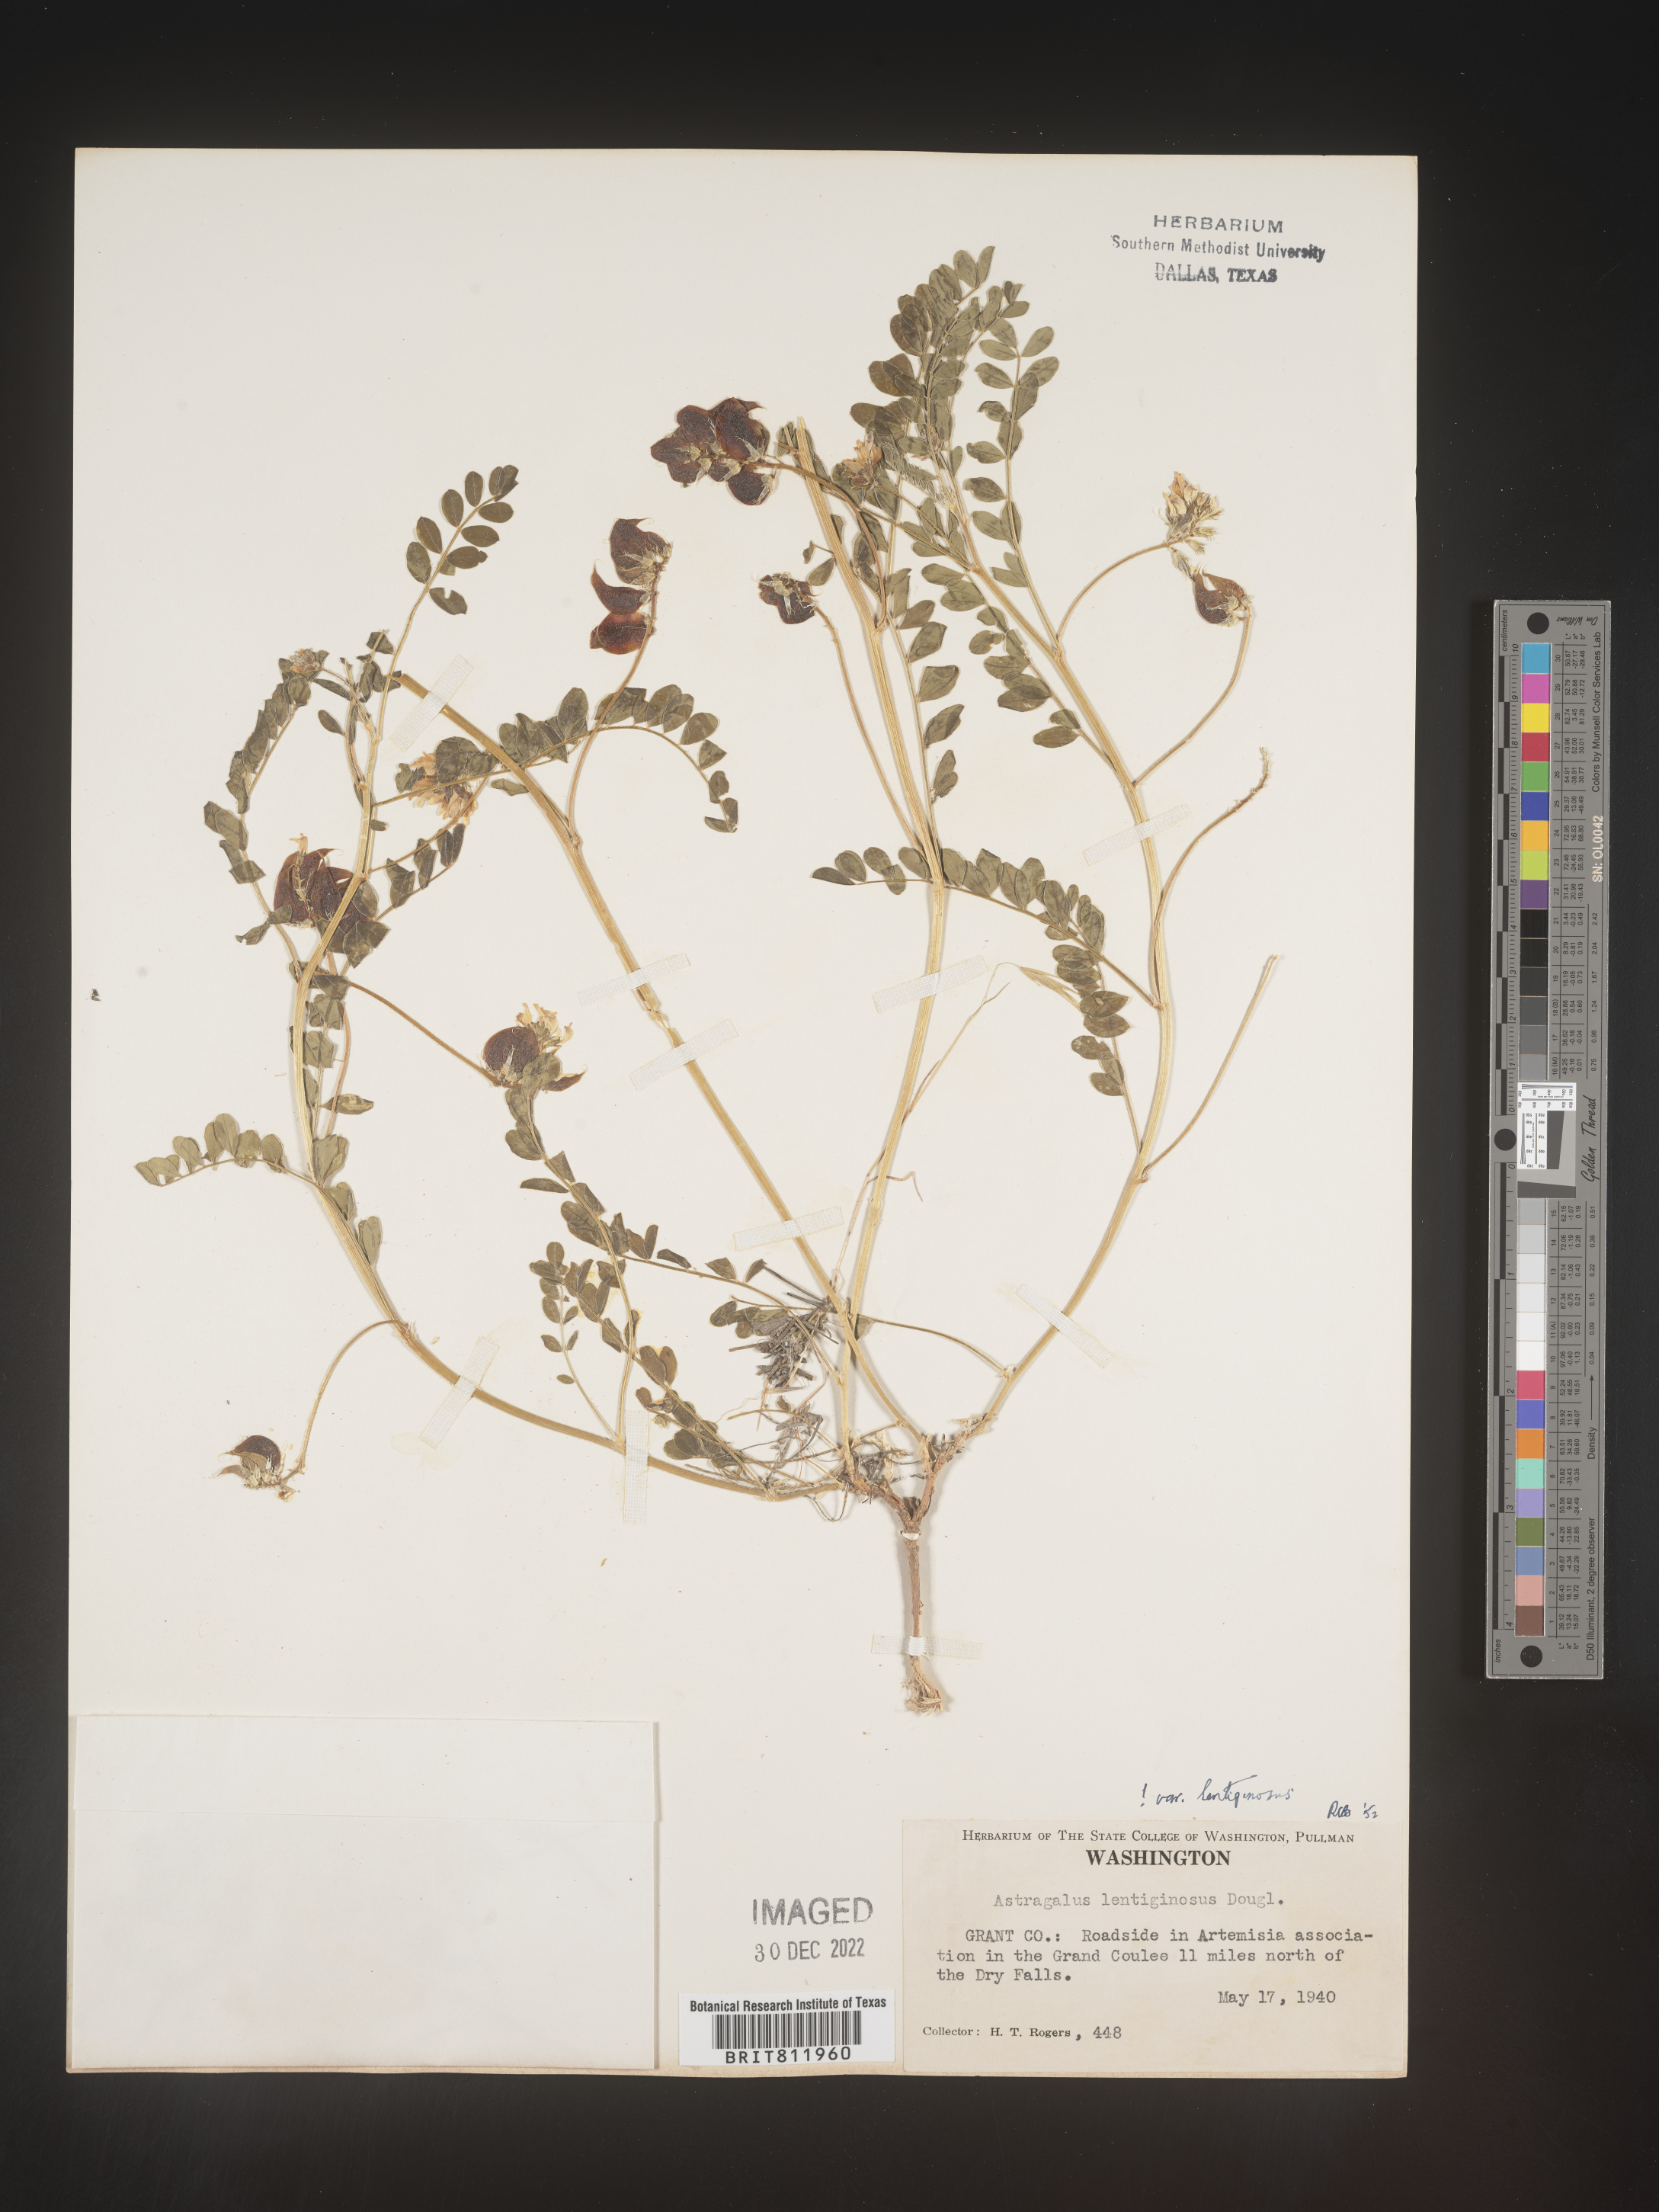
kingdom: Plantae
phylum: Tracheophyta
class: Magnoliopsida
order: Fabales
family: Fabaceae
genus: Astragalus
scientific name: Astragalus lentiginosus
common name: Freckled milkvetch
